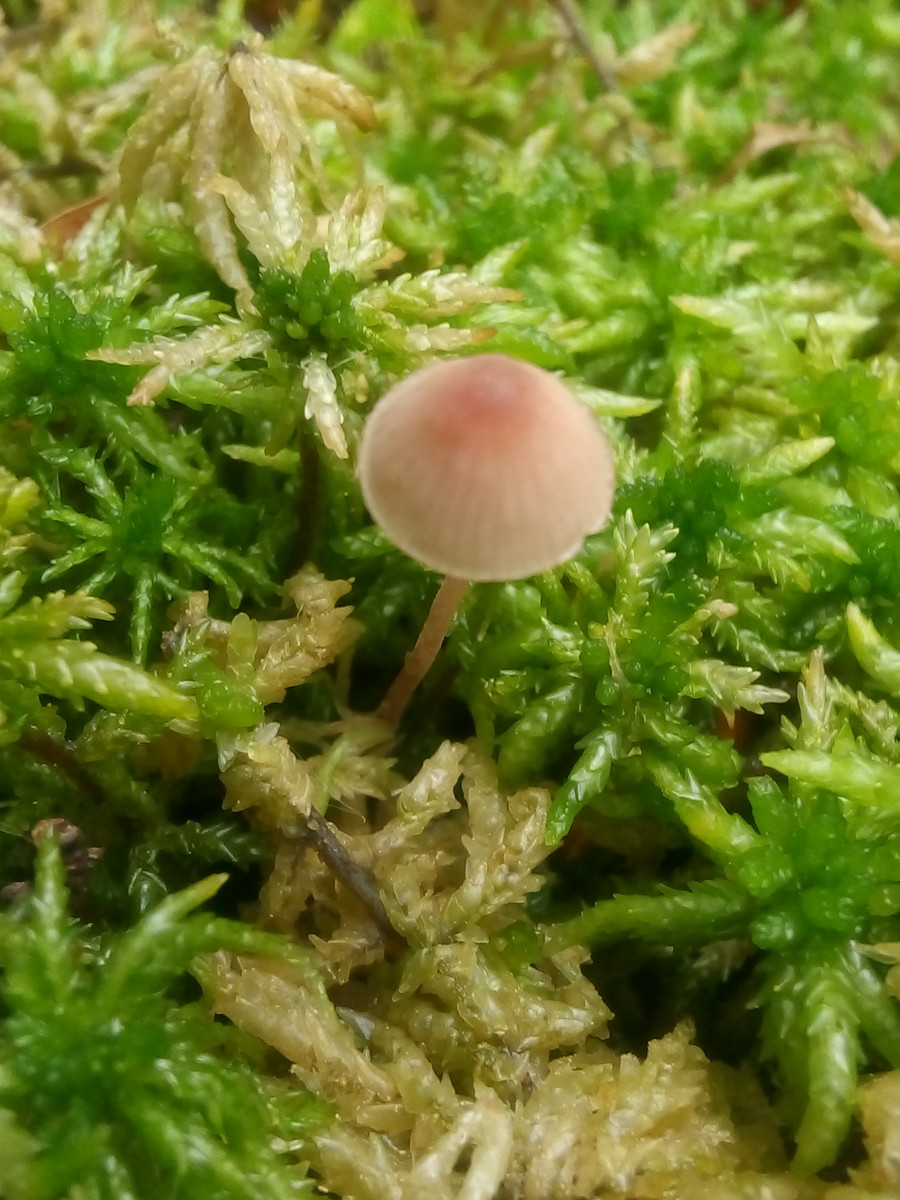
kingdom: Fungi
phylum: Basidiomycota
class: Agaricomycetes
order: Agaricales
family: Mycenaceae
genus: Mycena
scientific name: Mycena sanguinolenta
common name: rødmælket huesvamp
